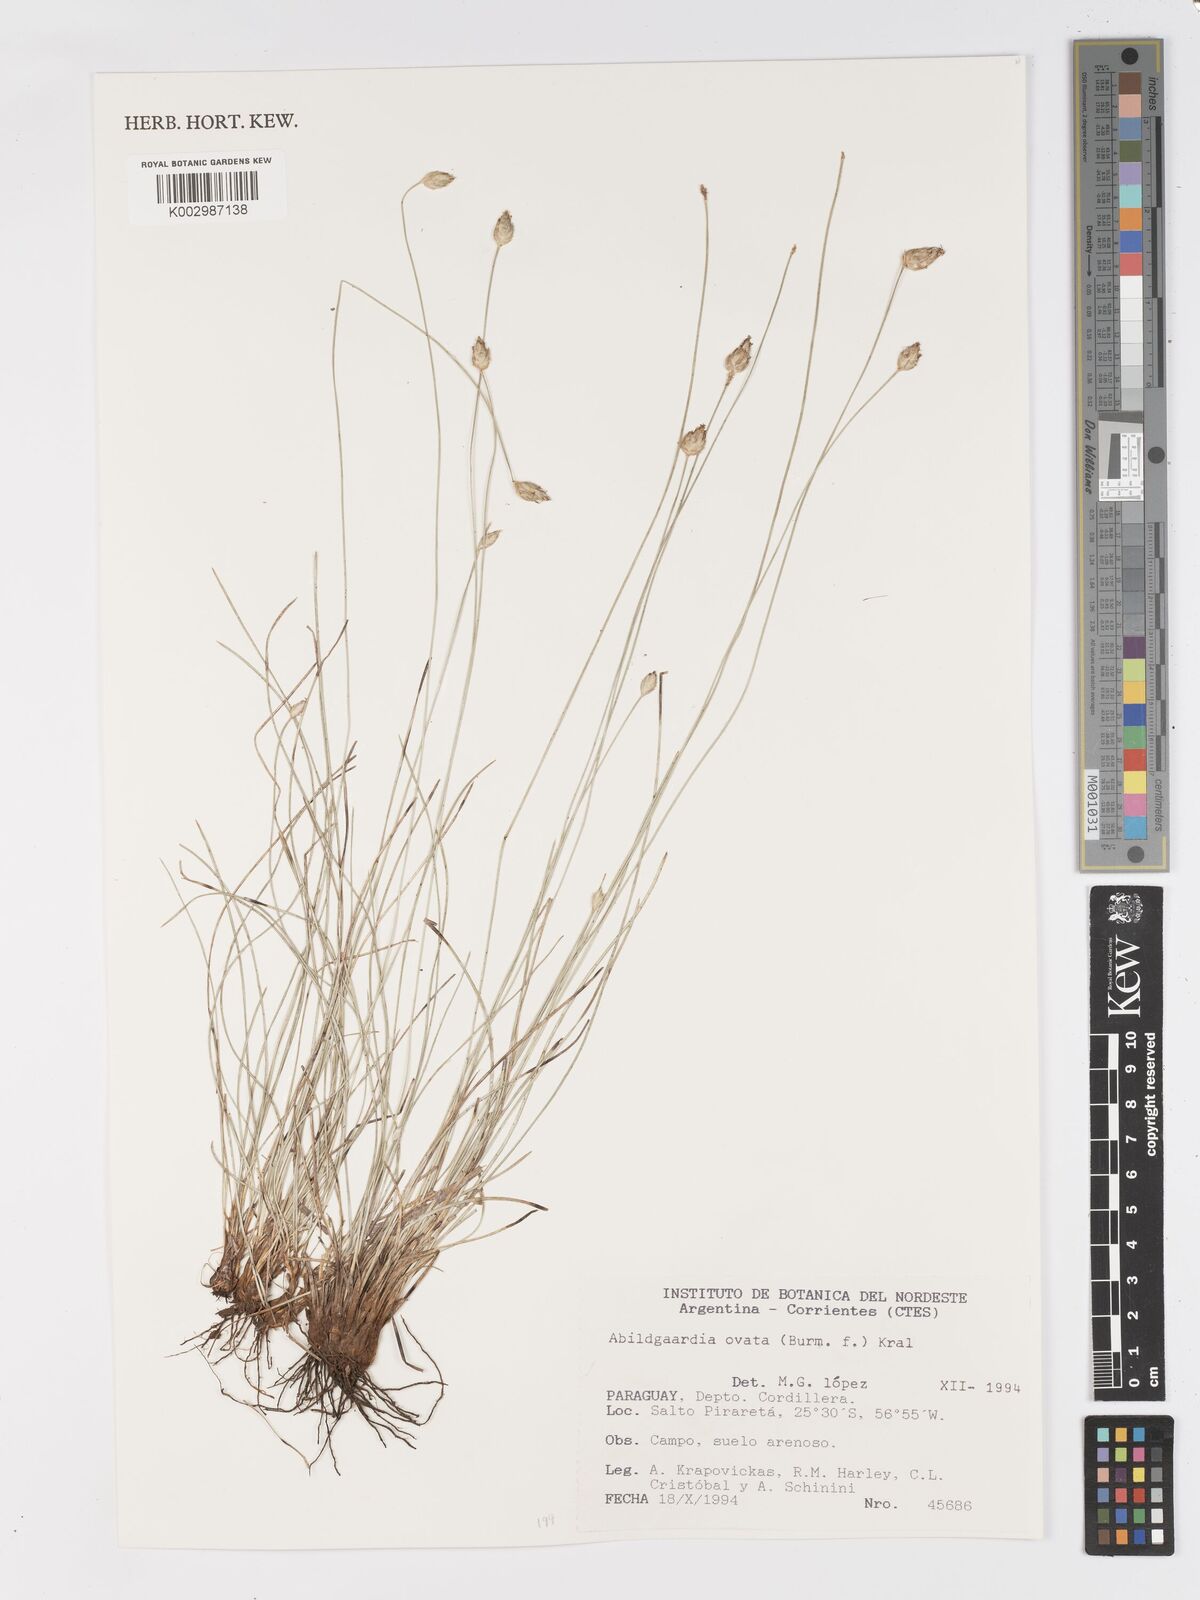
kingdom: Plantae
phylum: Tracheophyta
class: Liliopsida
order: Poales
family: Cyperaceae
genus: Abildgaardia
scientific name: Abildgaardia ovata
